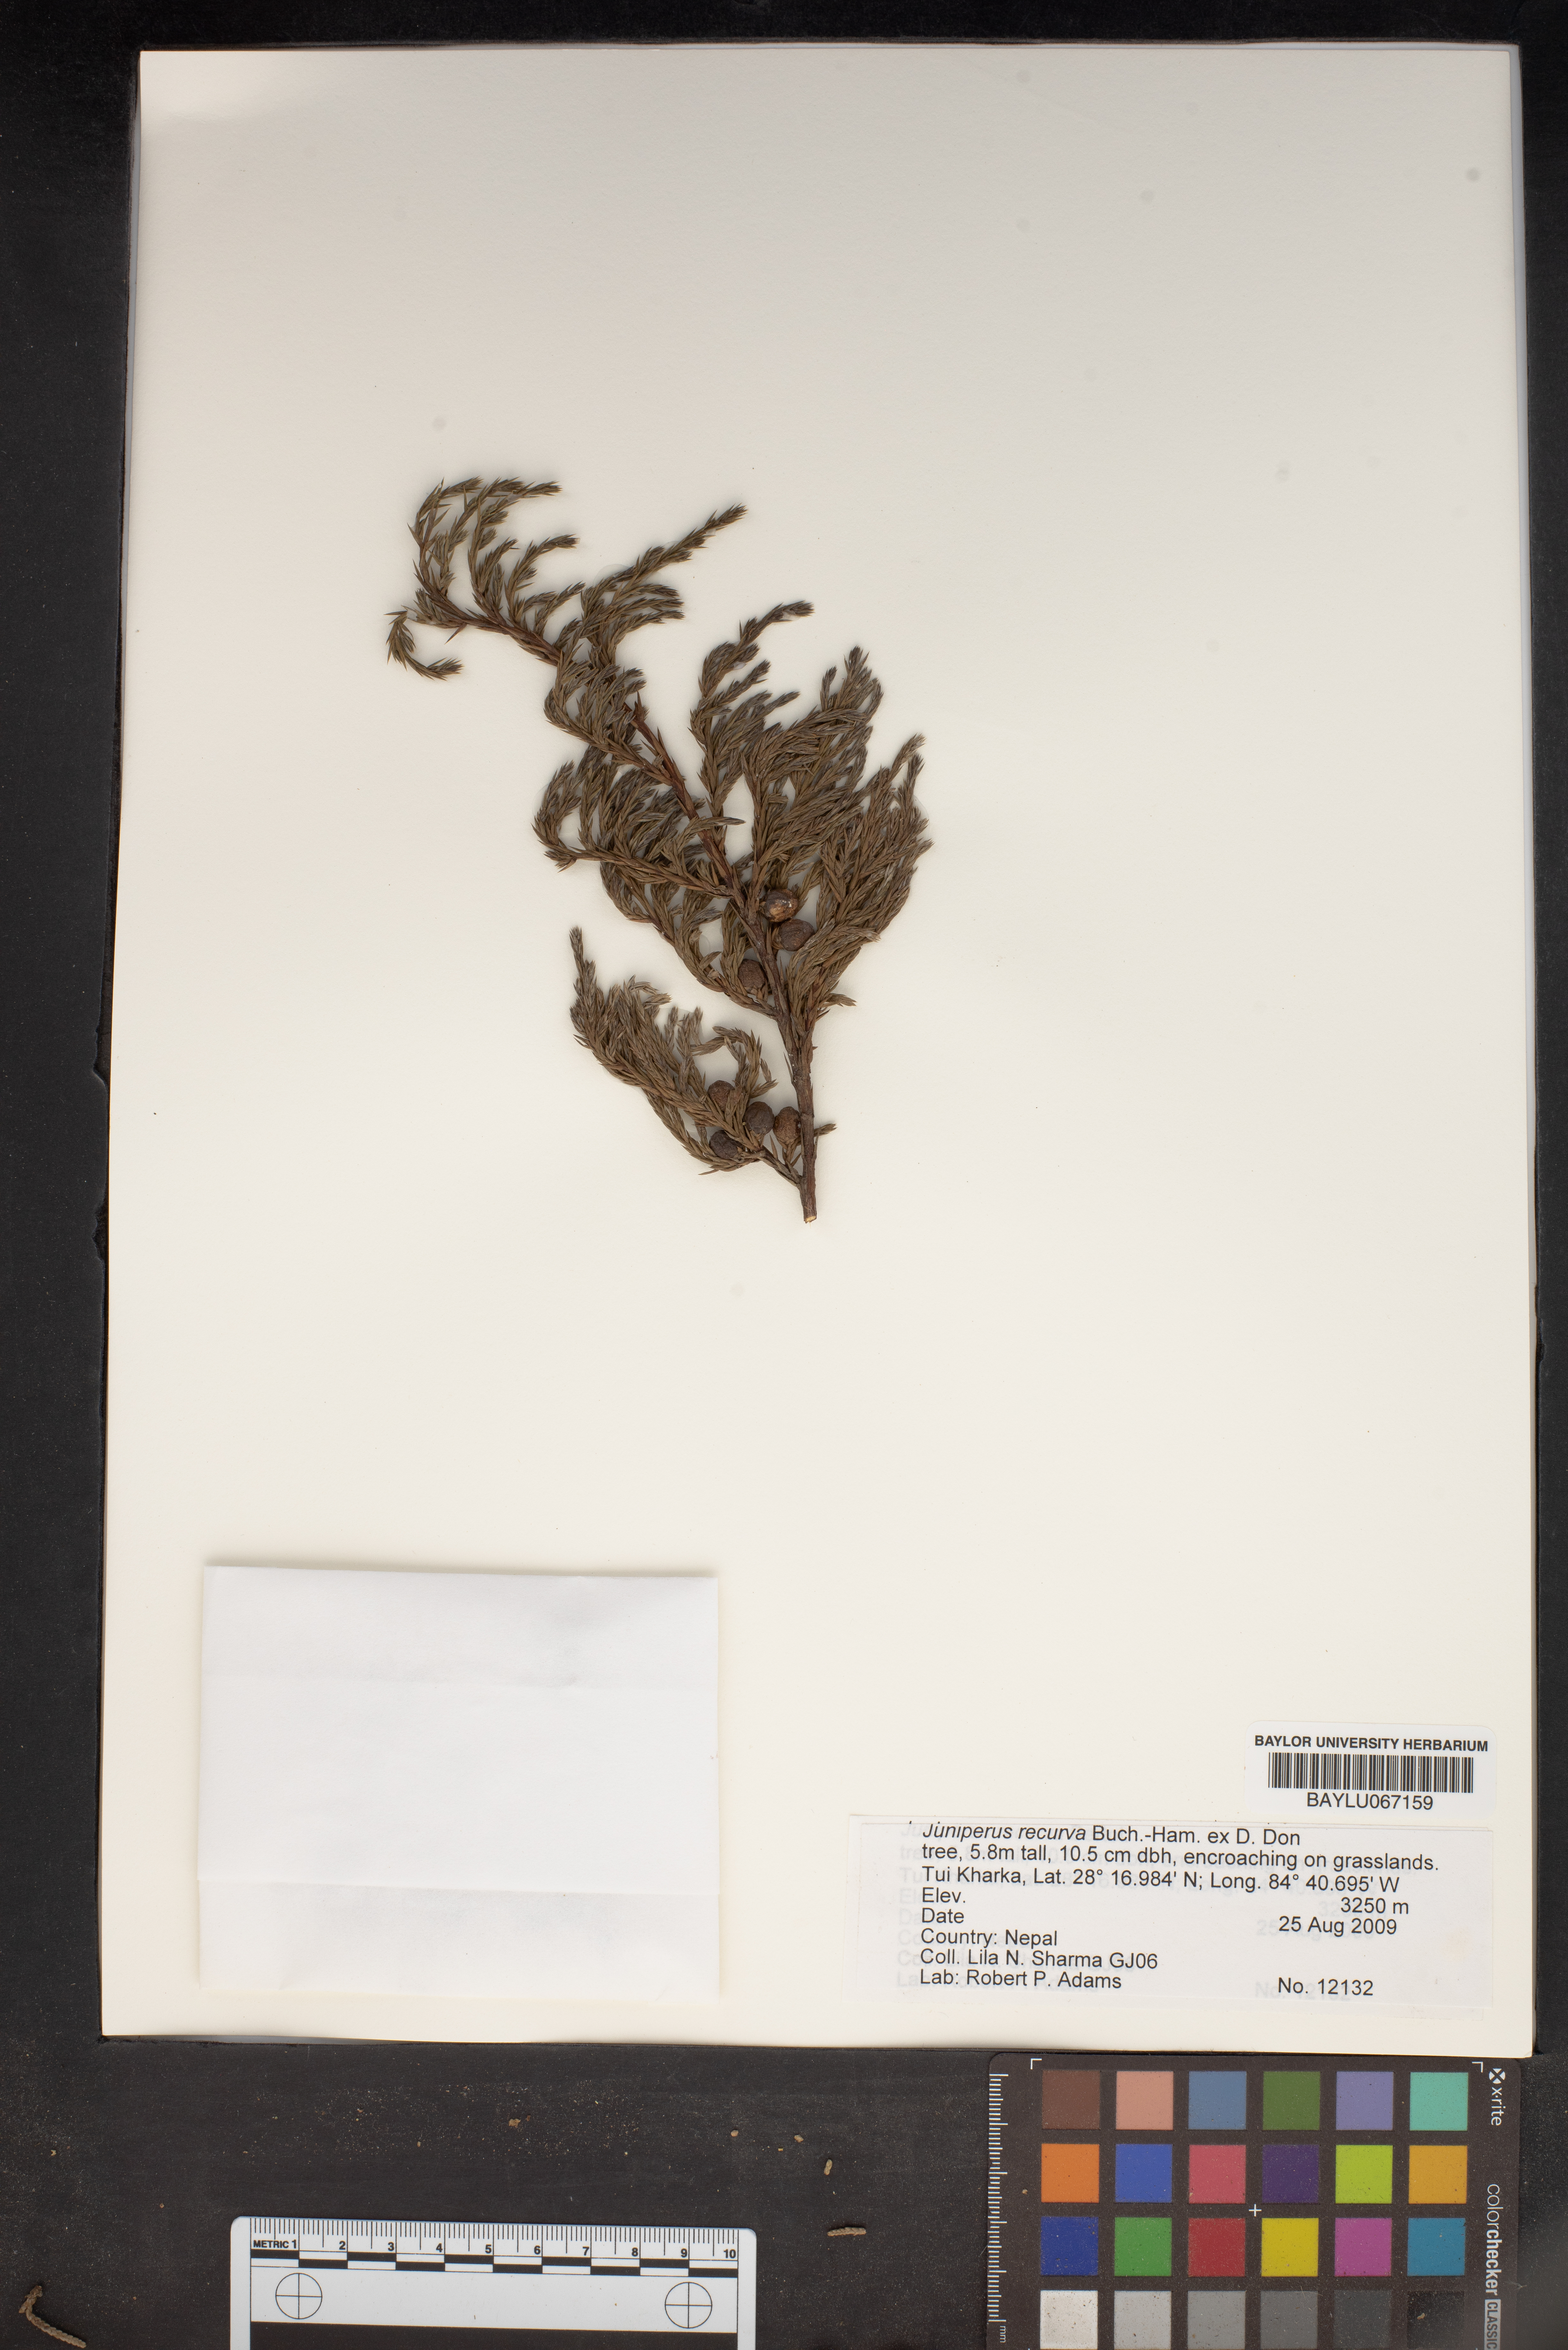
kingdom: Plantae
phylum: Tracheophyta
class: Pinopsida
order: Pinales
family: Cupressaceae
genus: Juniperus
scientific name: Juniperus recurva
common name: Drooping juniper
